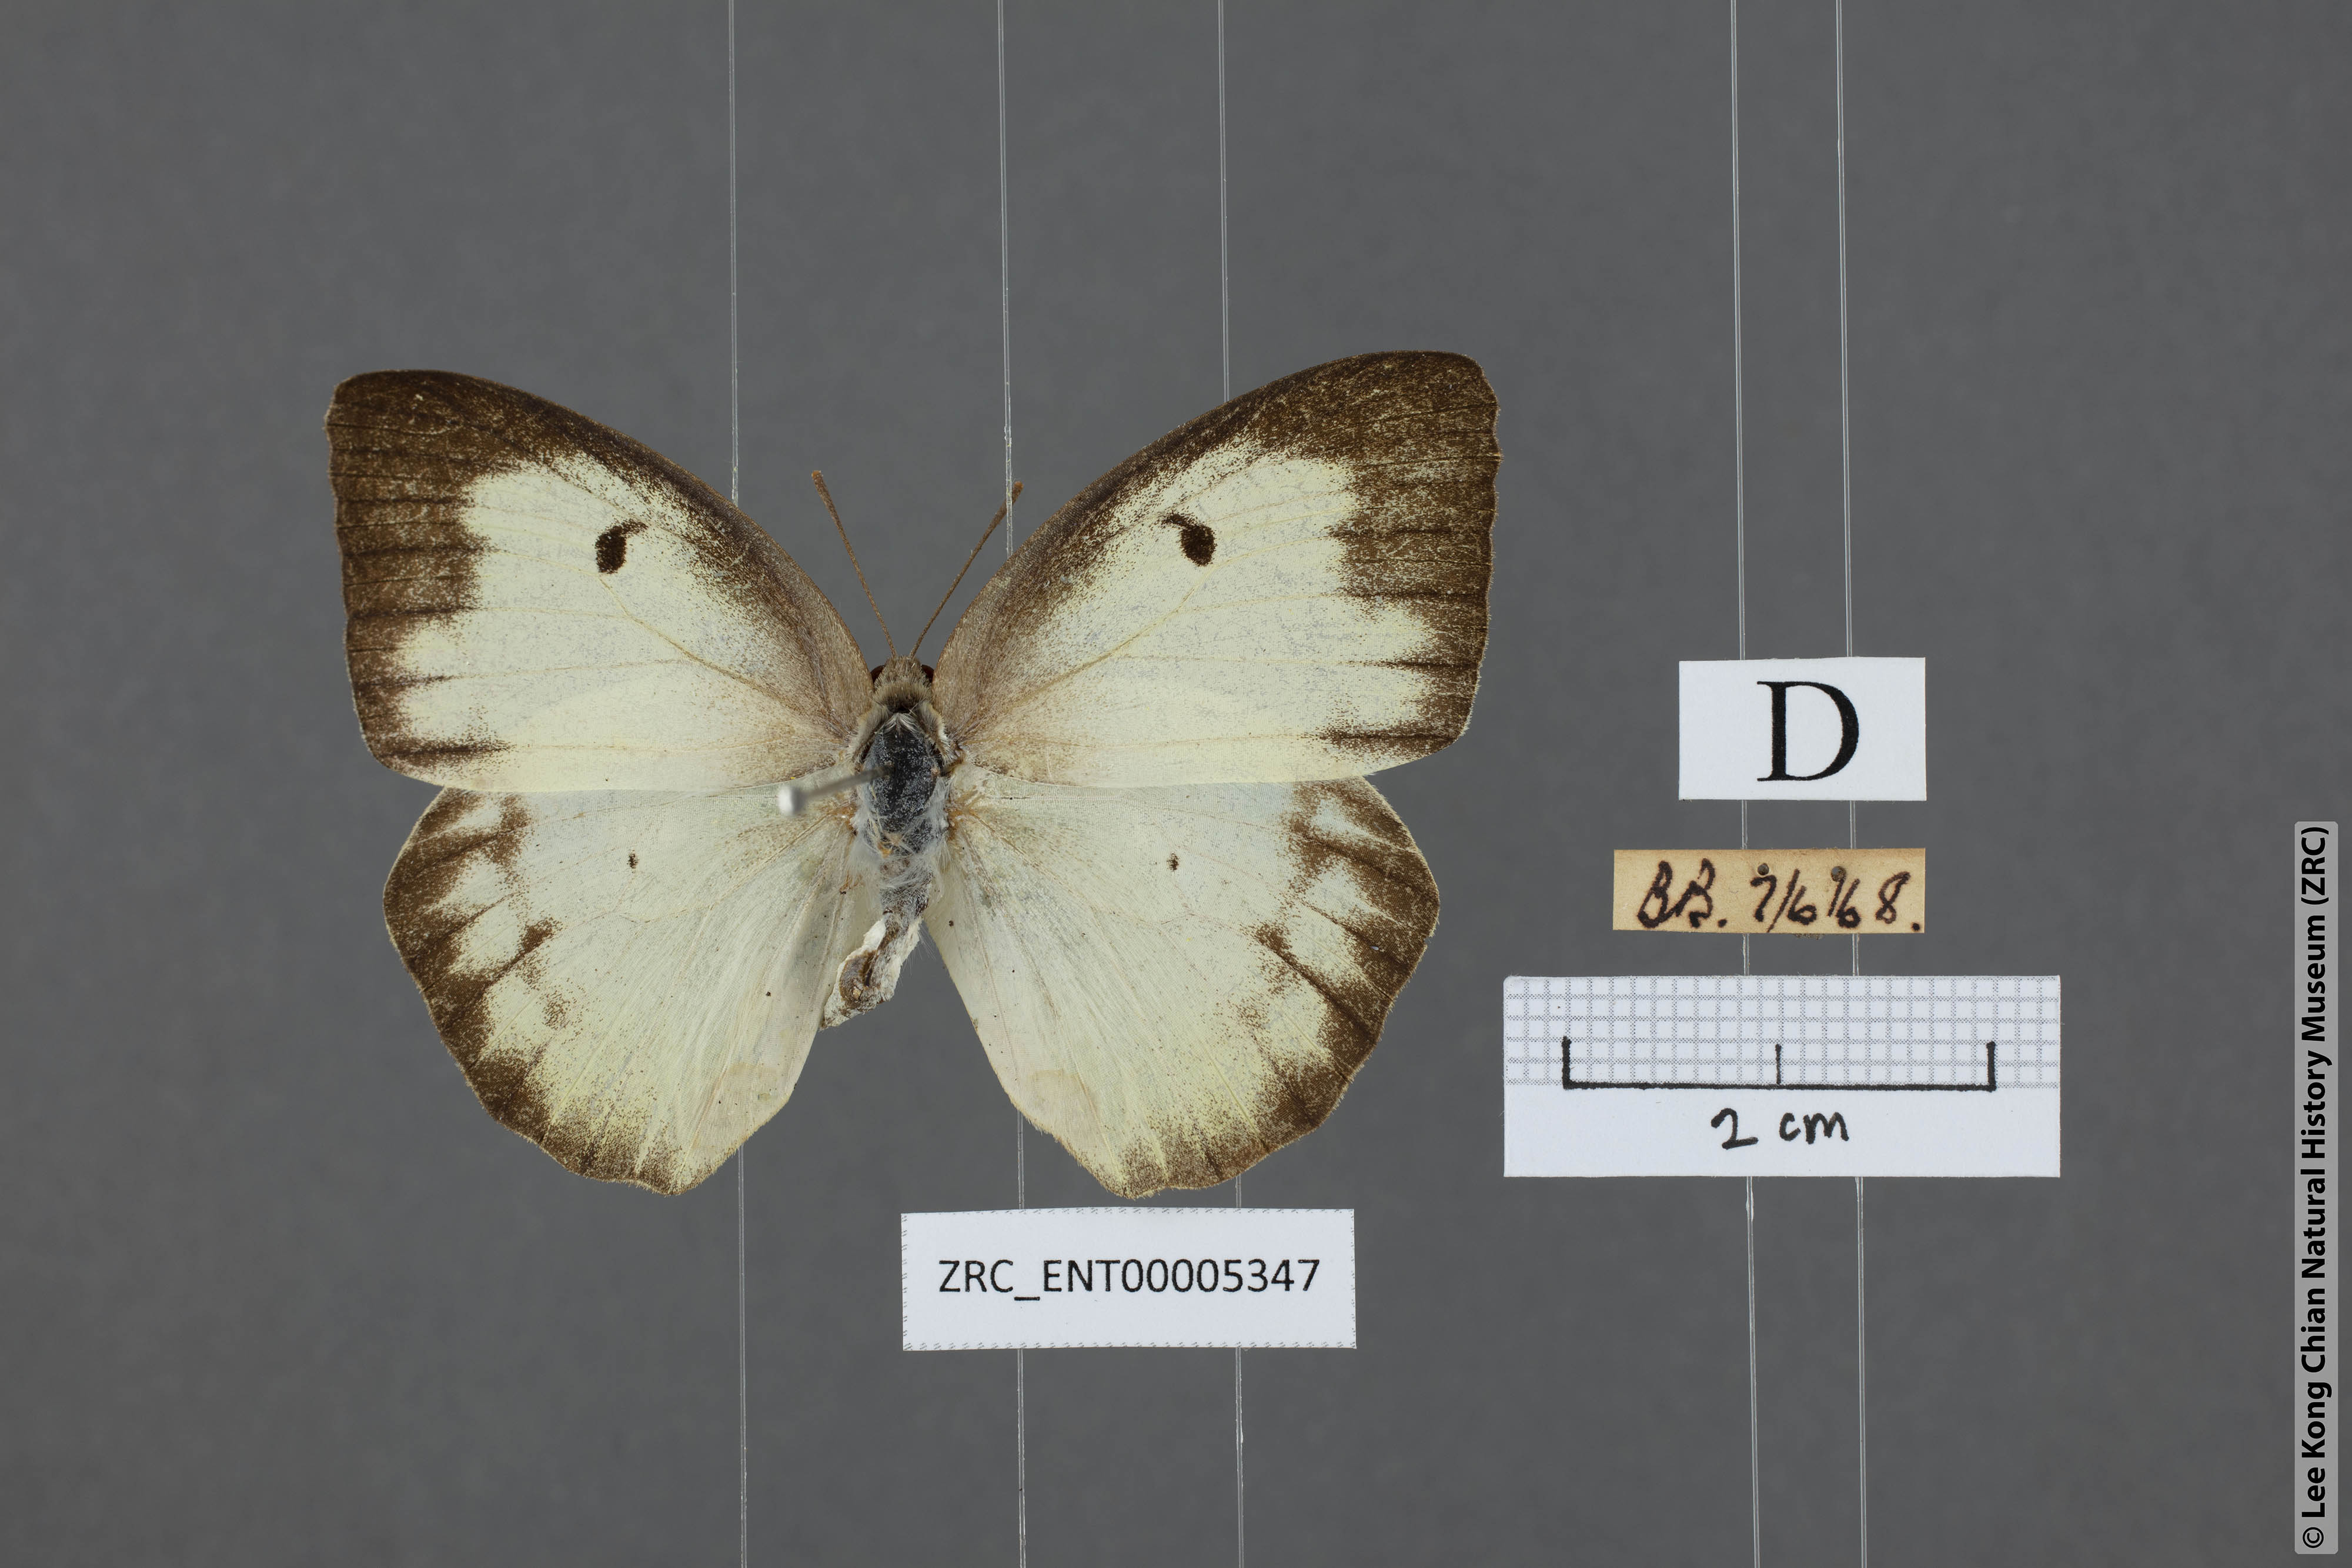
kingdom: Animalia
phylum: Arthropoda
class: Insecta
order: Lepidoptera
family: Pieridae
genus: Catopsilia
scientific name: Catopsilia pomona
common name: Common emigrant
